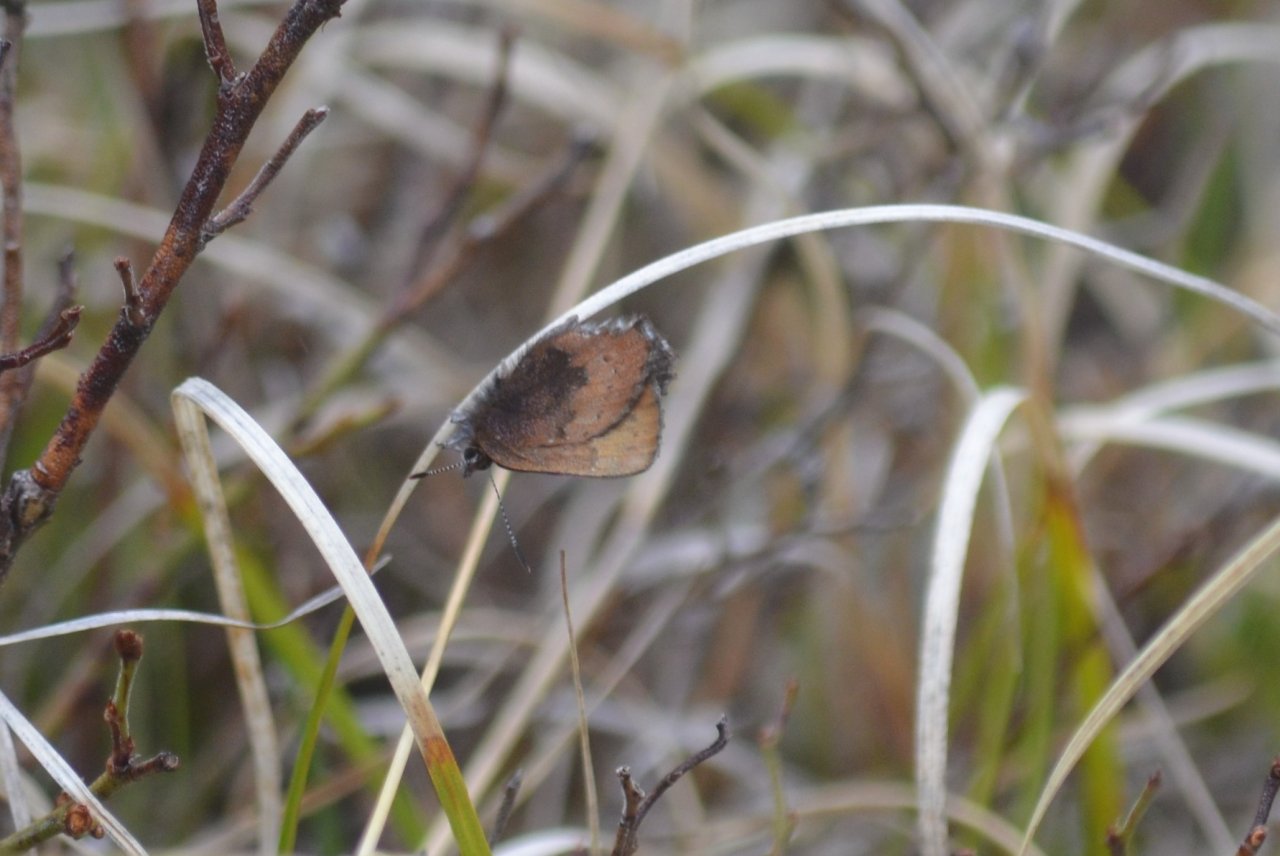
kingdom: Animalia
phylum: Arthropoda
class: Insecta
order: Lepidoptera
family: Lycaenidae
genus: Incisalia
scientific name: Incisalia irioides
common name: Brown Elfin
